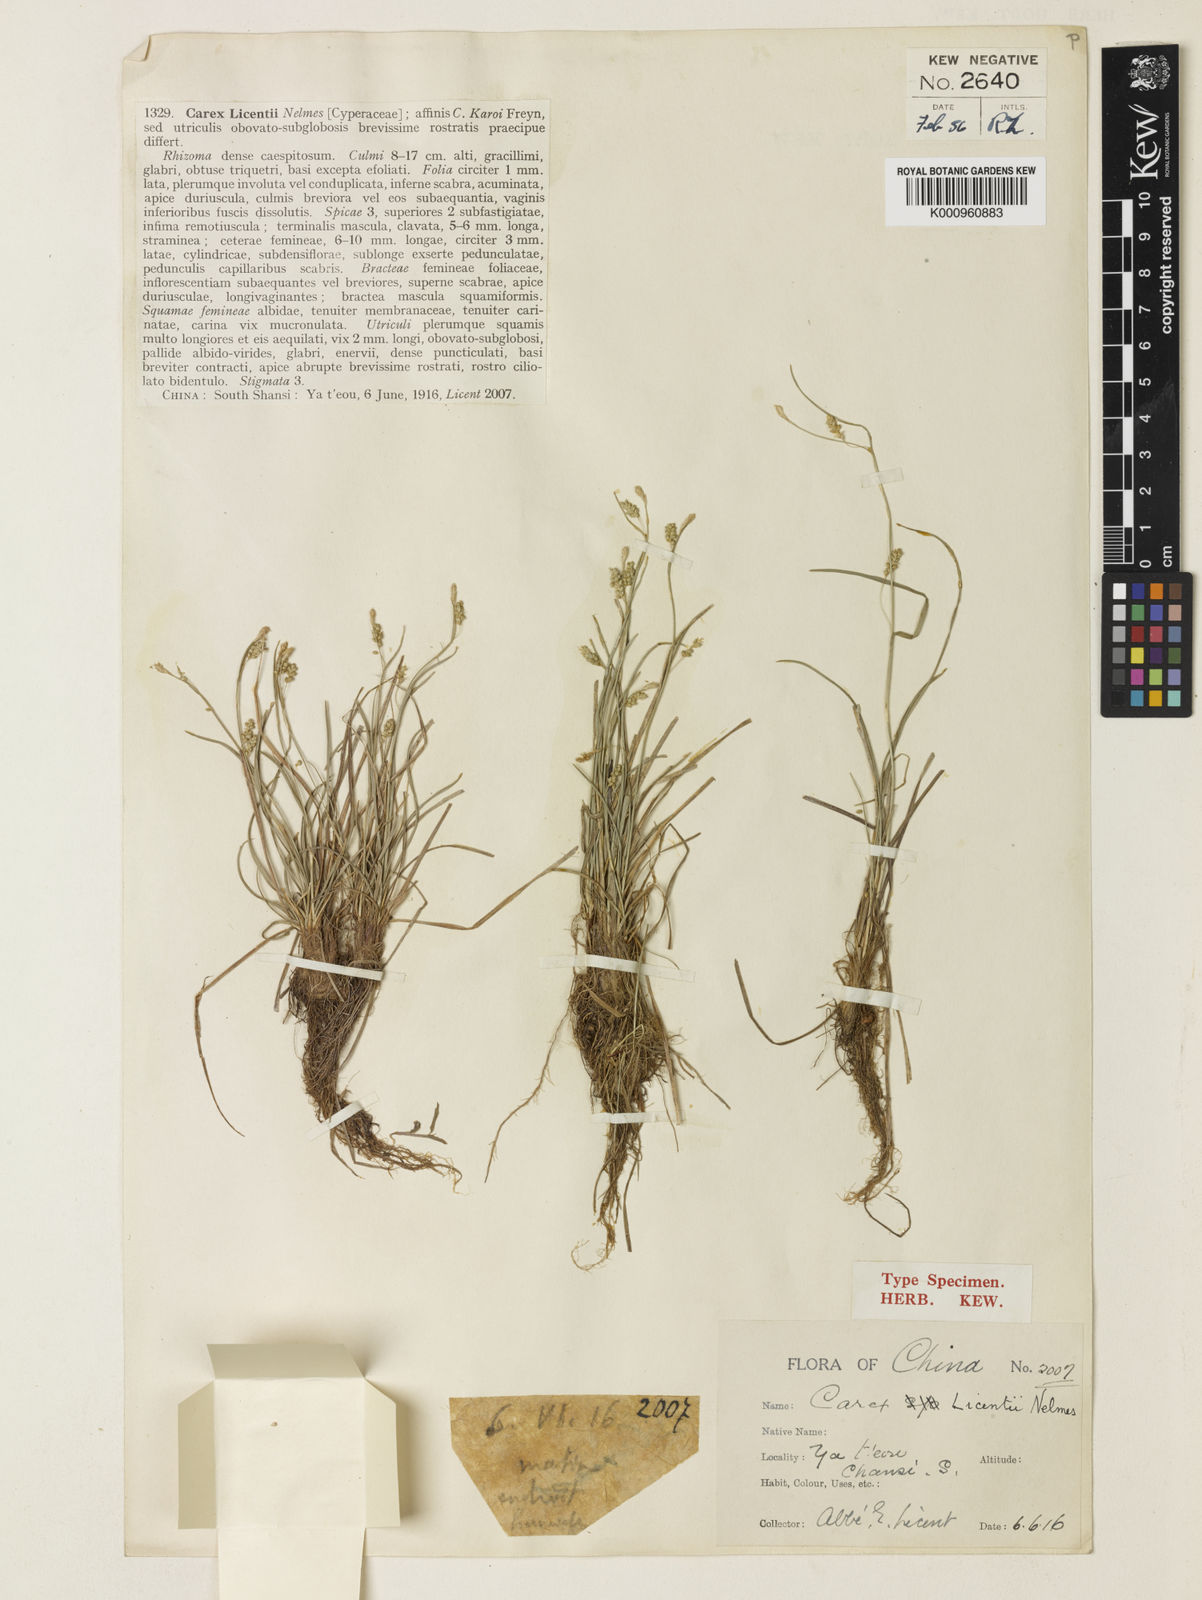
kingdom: Plantae
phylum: Tracheophyta
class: Liliopsida
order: Poales
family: Cyperaceae
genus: Carex
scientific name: Carex capillaris
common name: Hair sedge
